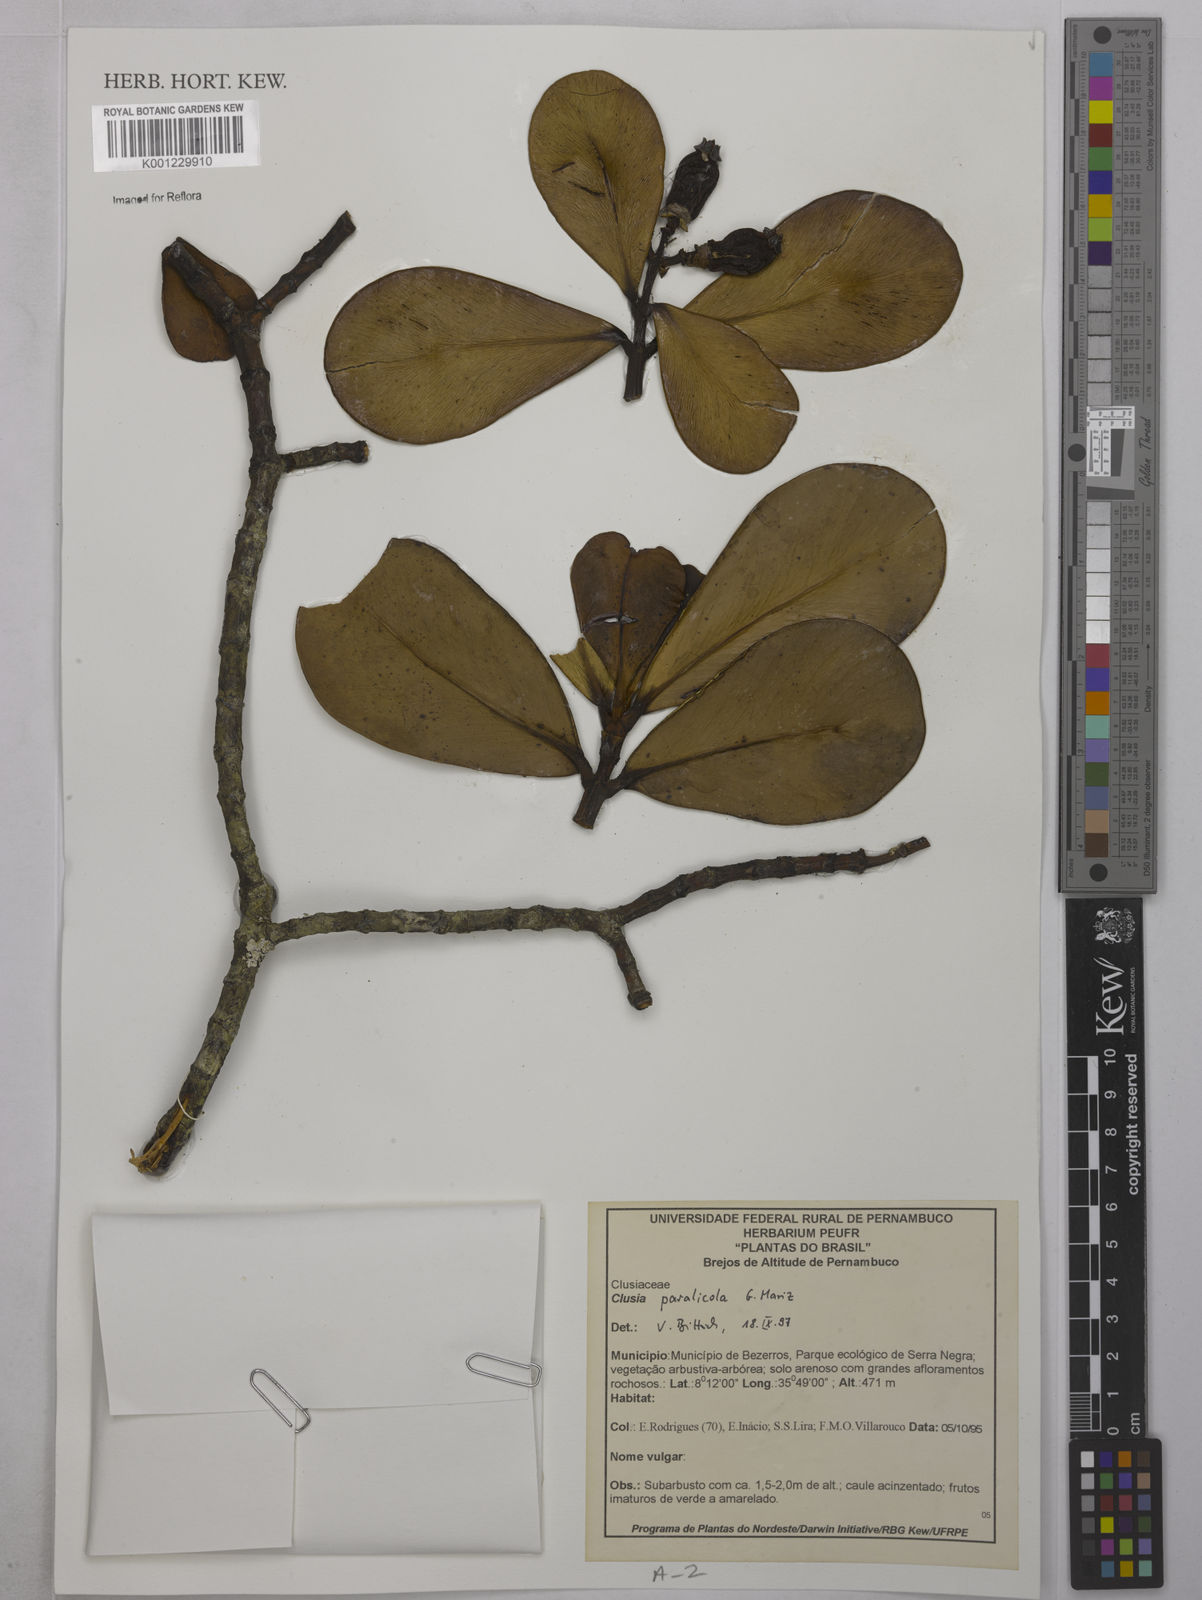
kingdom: Plantae
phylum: Tracheophyta
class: Magnoliopsida
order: Malpighiales
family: Clusiaceae
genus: Clusia
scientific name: Clusia paralicola
